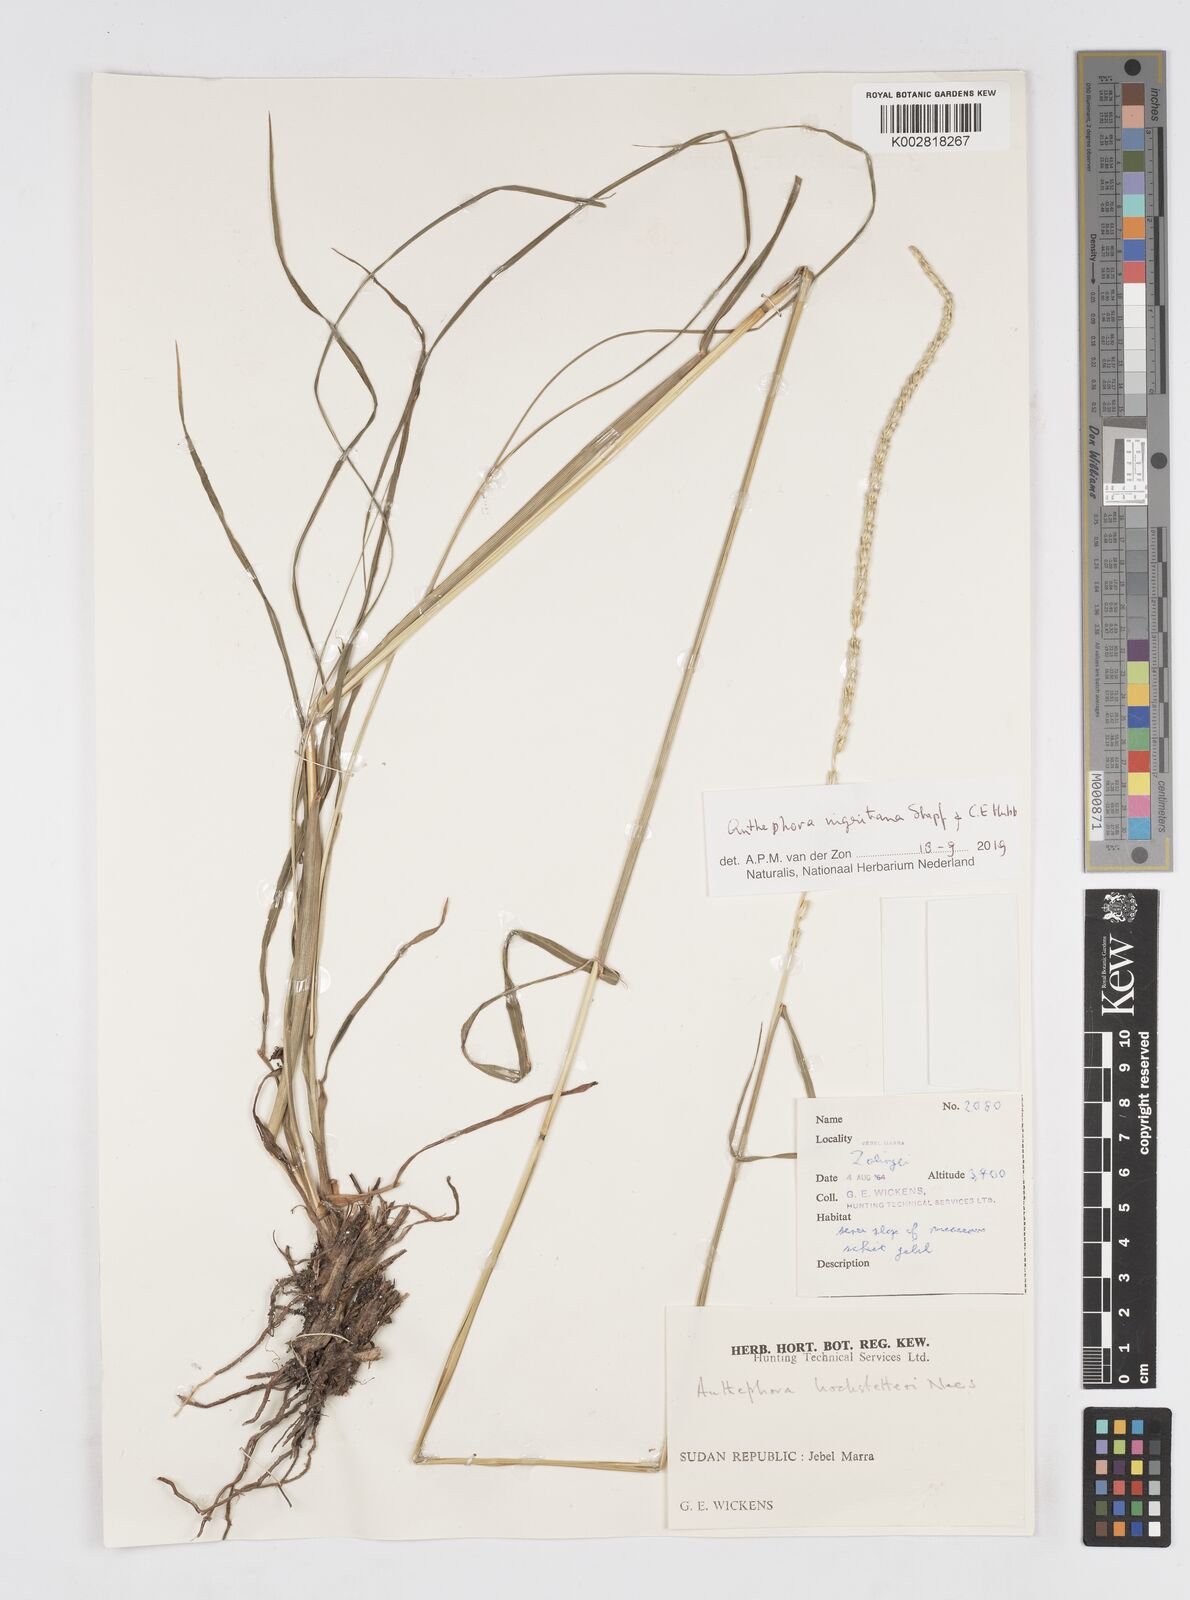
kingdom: Plantae
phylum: Tracheophyta
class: Liliopsida
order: Poales
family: Poaceae
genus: Anthephora
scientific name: Anthephora nigritana
